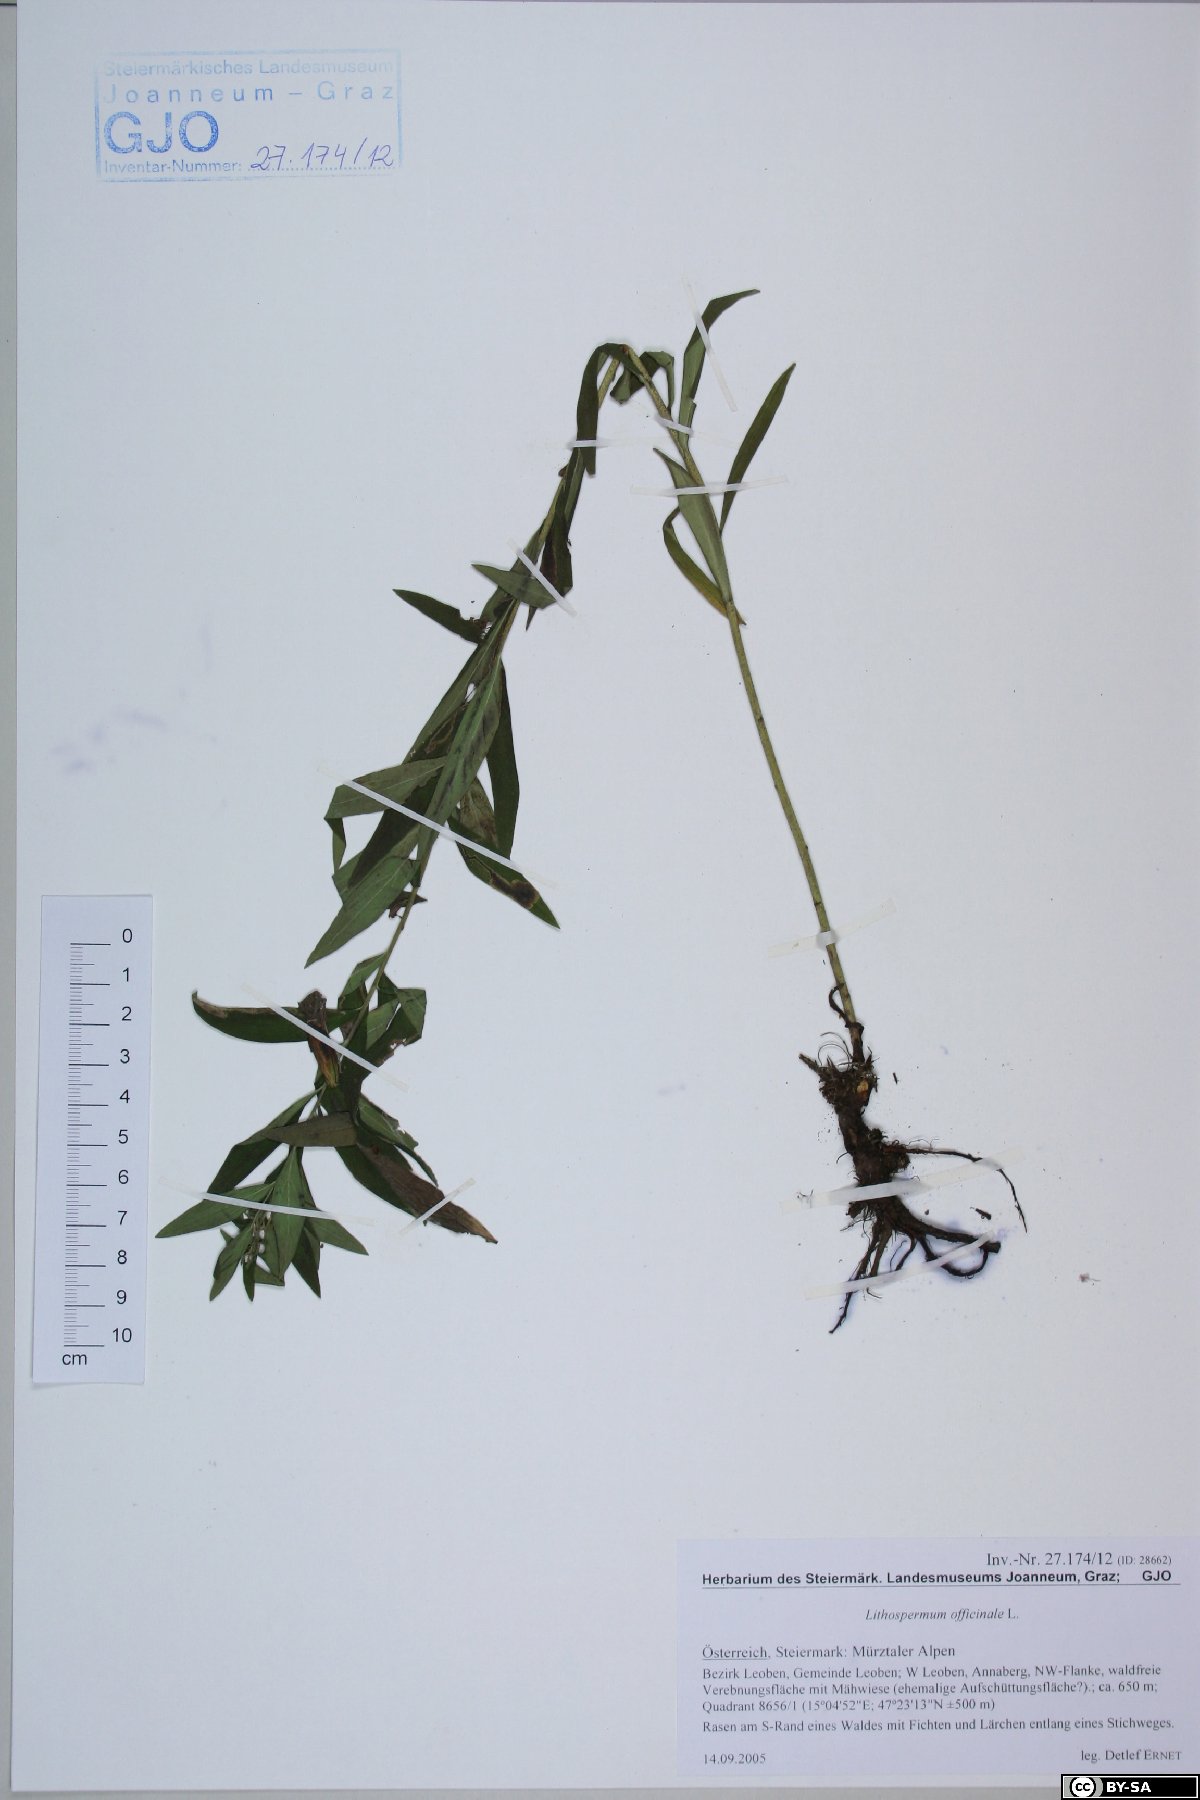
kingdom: Plantae
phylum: Tracheophyta
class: Magnoliopsida
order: Boraginales
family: Boraginaceae
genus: Lithospermum
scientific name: Lithospermum officinale
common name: Common gromwell
